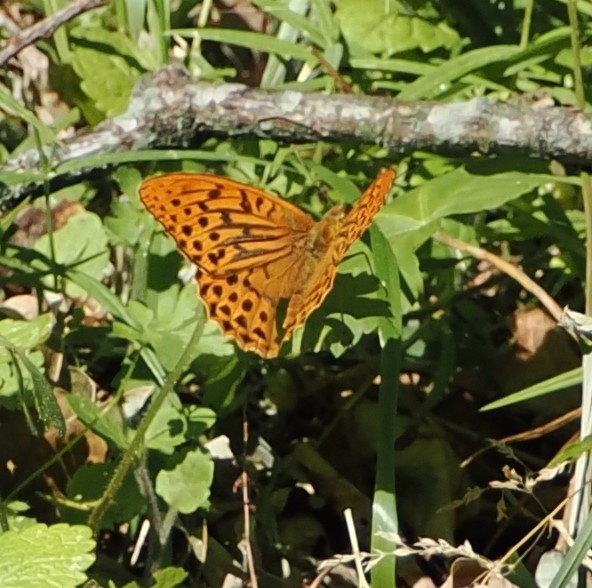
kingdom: Animalia
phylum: Arthropoda
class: Insecta
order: Lepidoptera
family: Nymphalidae
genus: Argynnis
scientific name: Argynnis paphia
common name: Kejserkåbe
